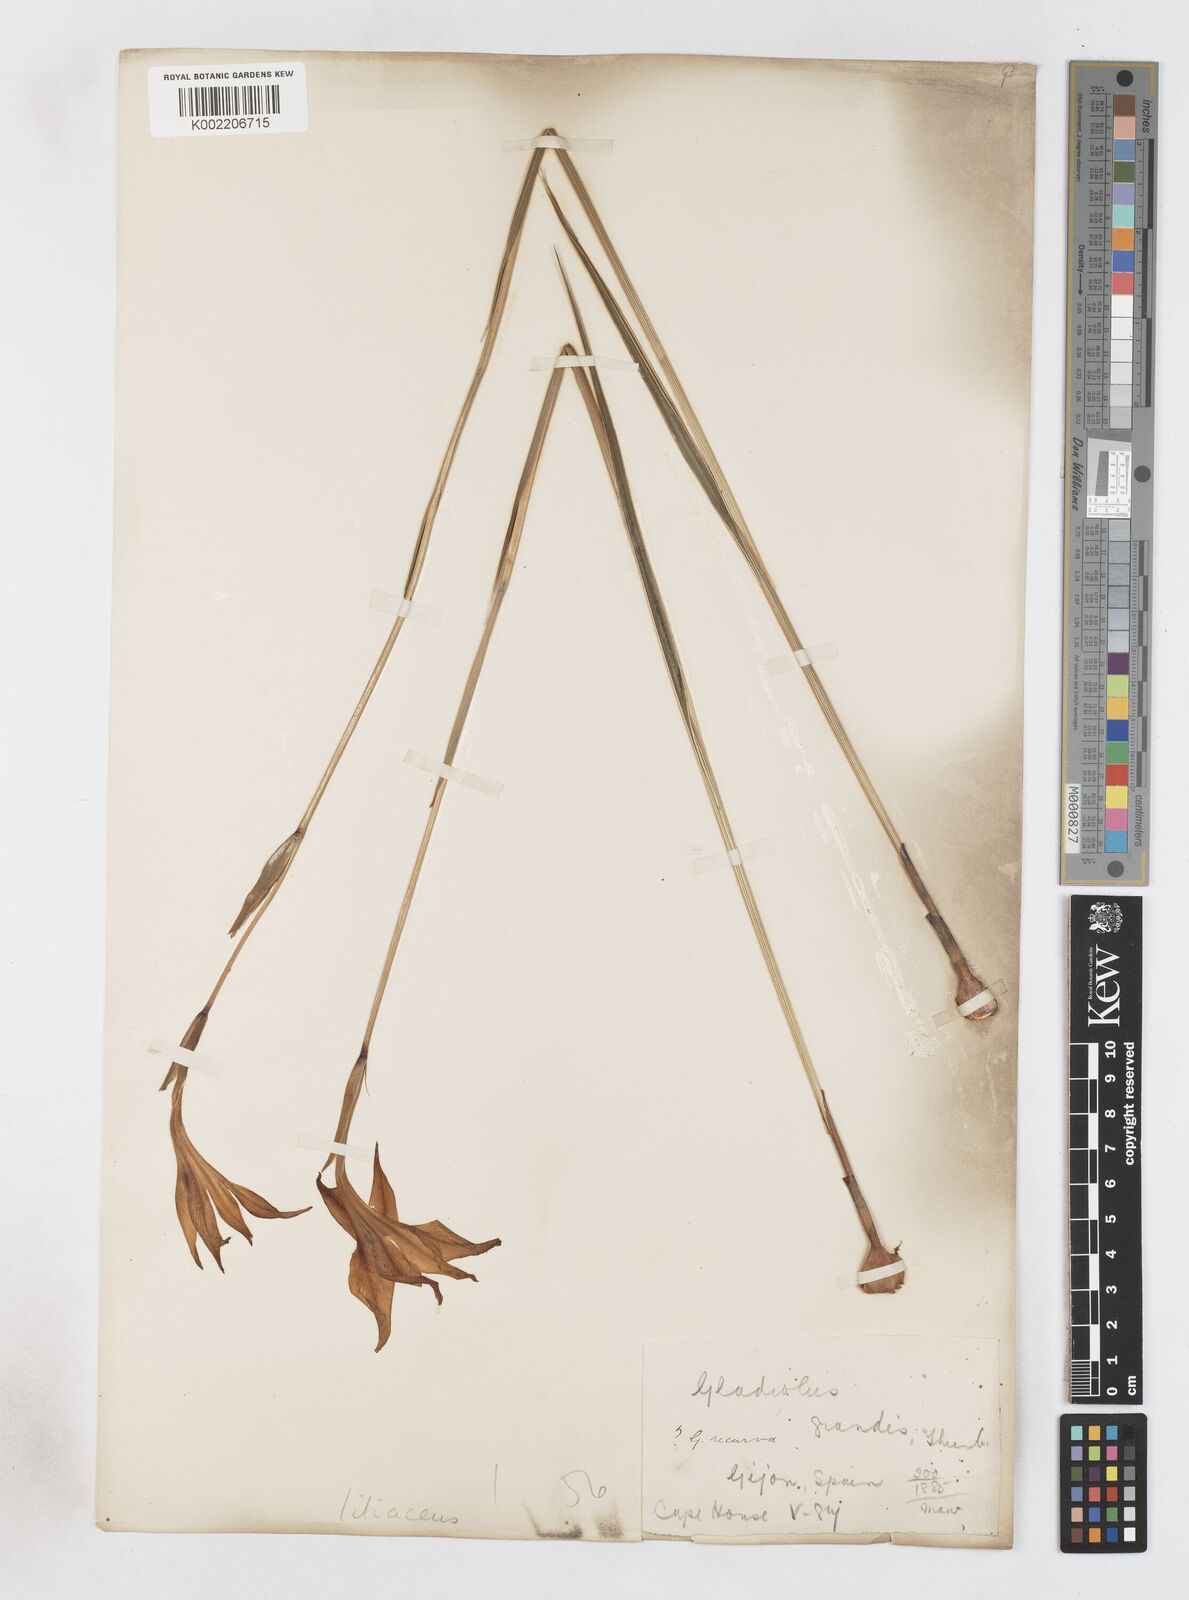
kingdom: Plantae
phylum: Tracheophyta
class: Liliopsida
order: Asparagales
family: Iridaceae
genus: Gladiolus
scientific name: Gladiolus liliaceus
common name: Large brown afrikaner
